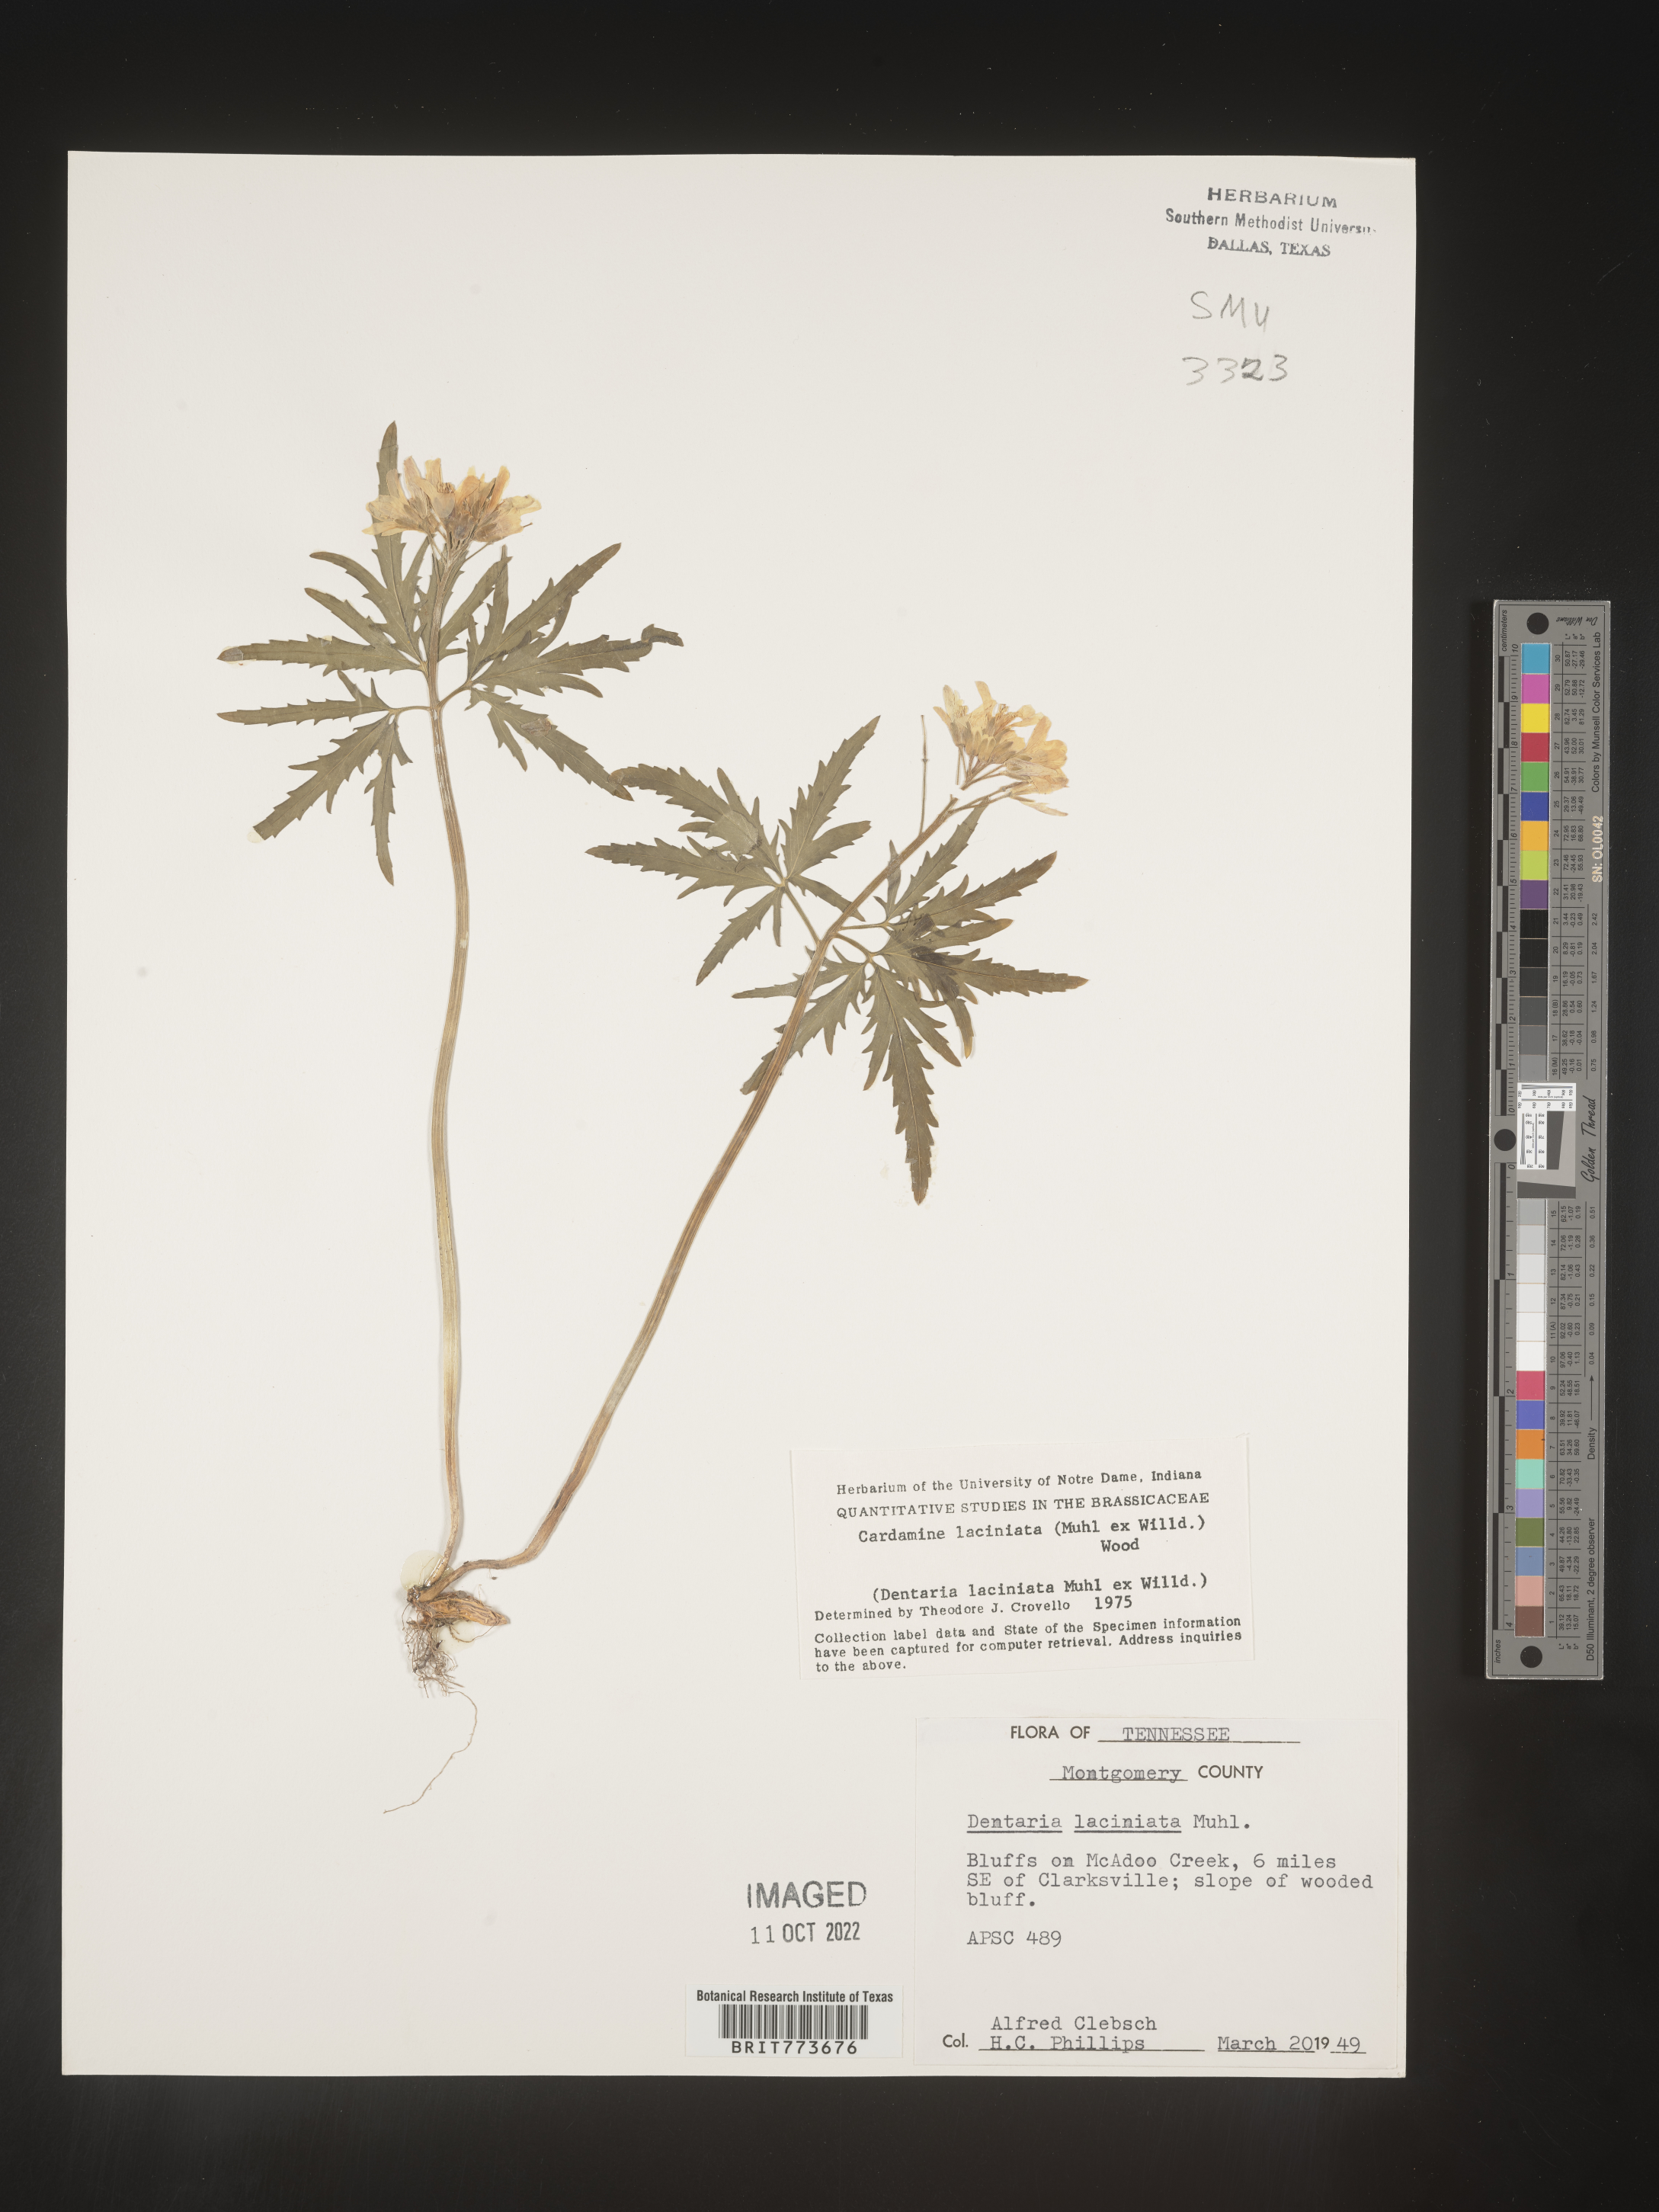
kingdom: Plantae
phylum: Tracheophyta
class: Magnoliopsida
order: Brassicales
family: Brassicaceae
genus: Rorippa
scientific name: Rorippa laciniata
